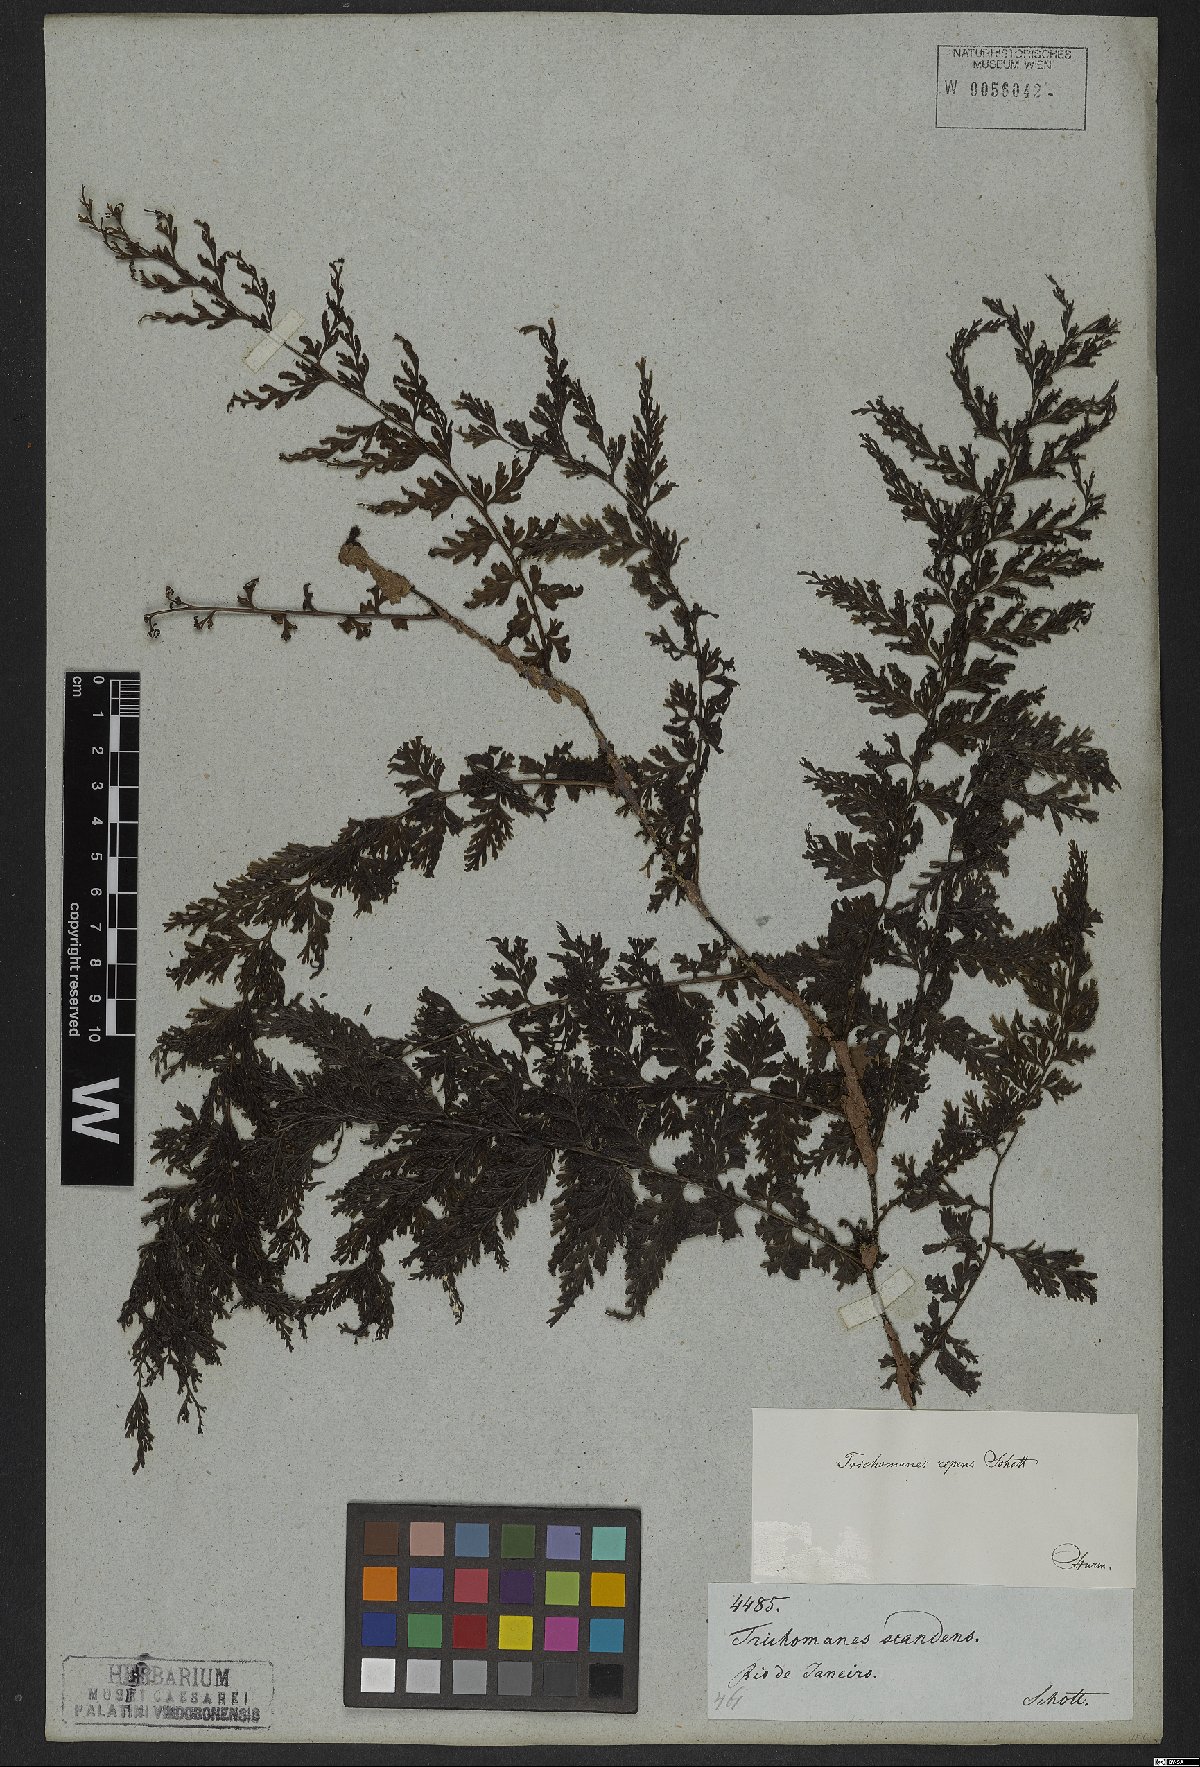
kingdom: Plantae
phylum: Tracheophyta
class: Polypodiopsida
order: Hymenophyllales
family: Hymenophyllaceae
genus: Vandenboschia
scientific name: Vandenboschia radicans
